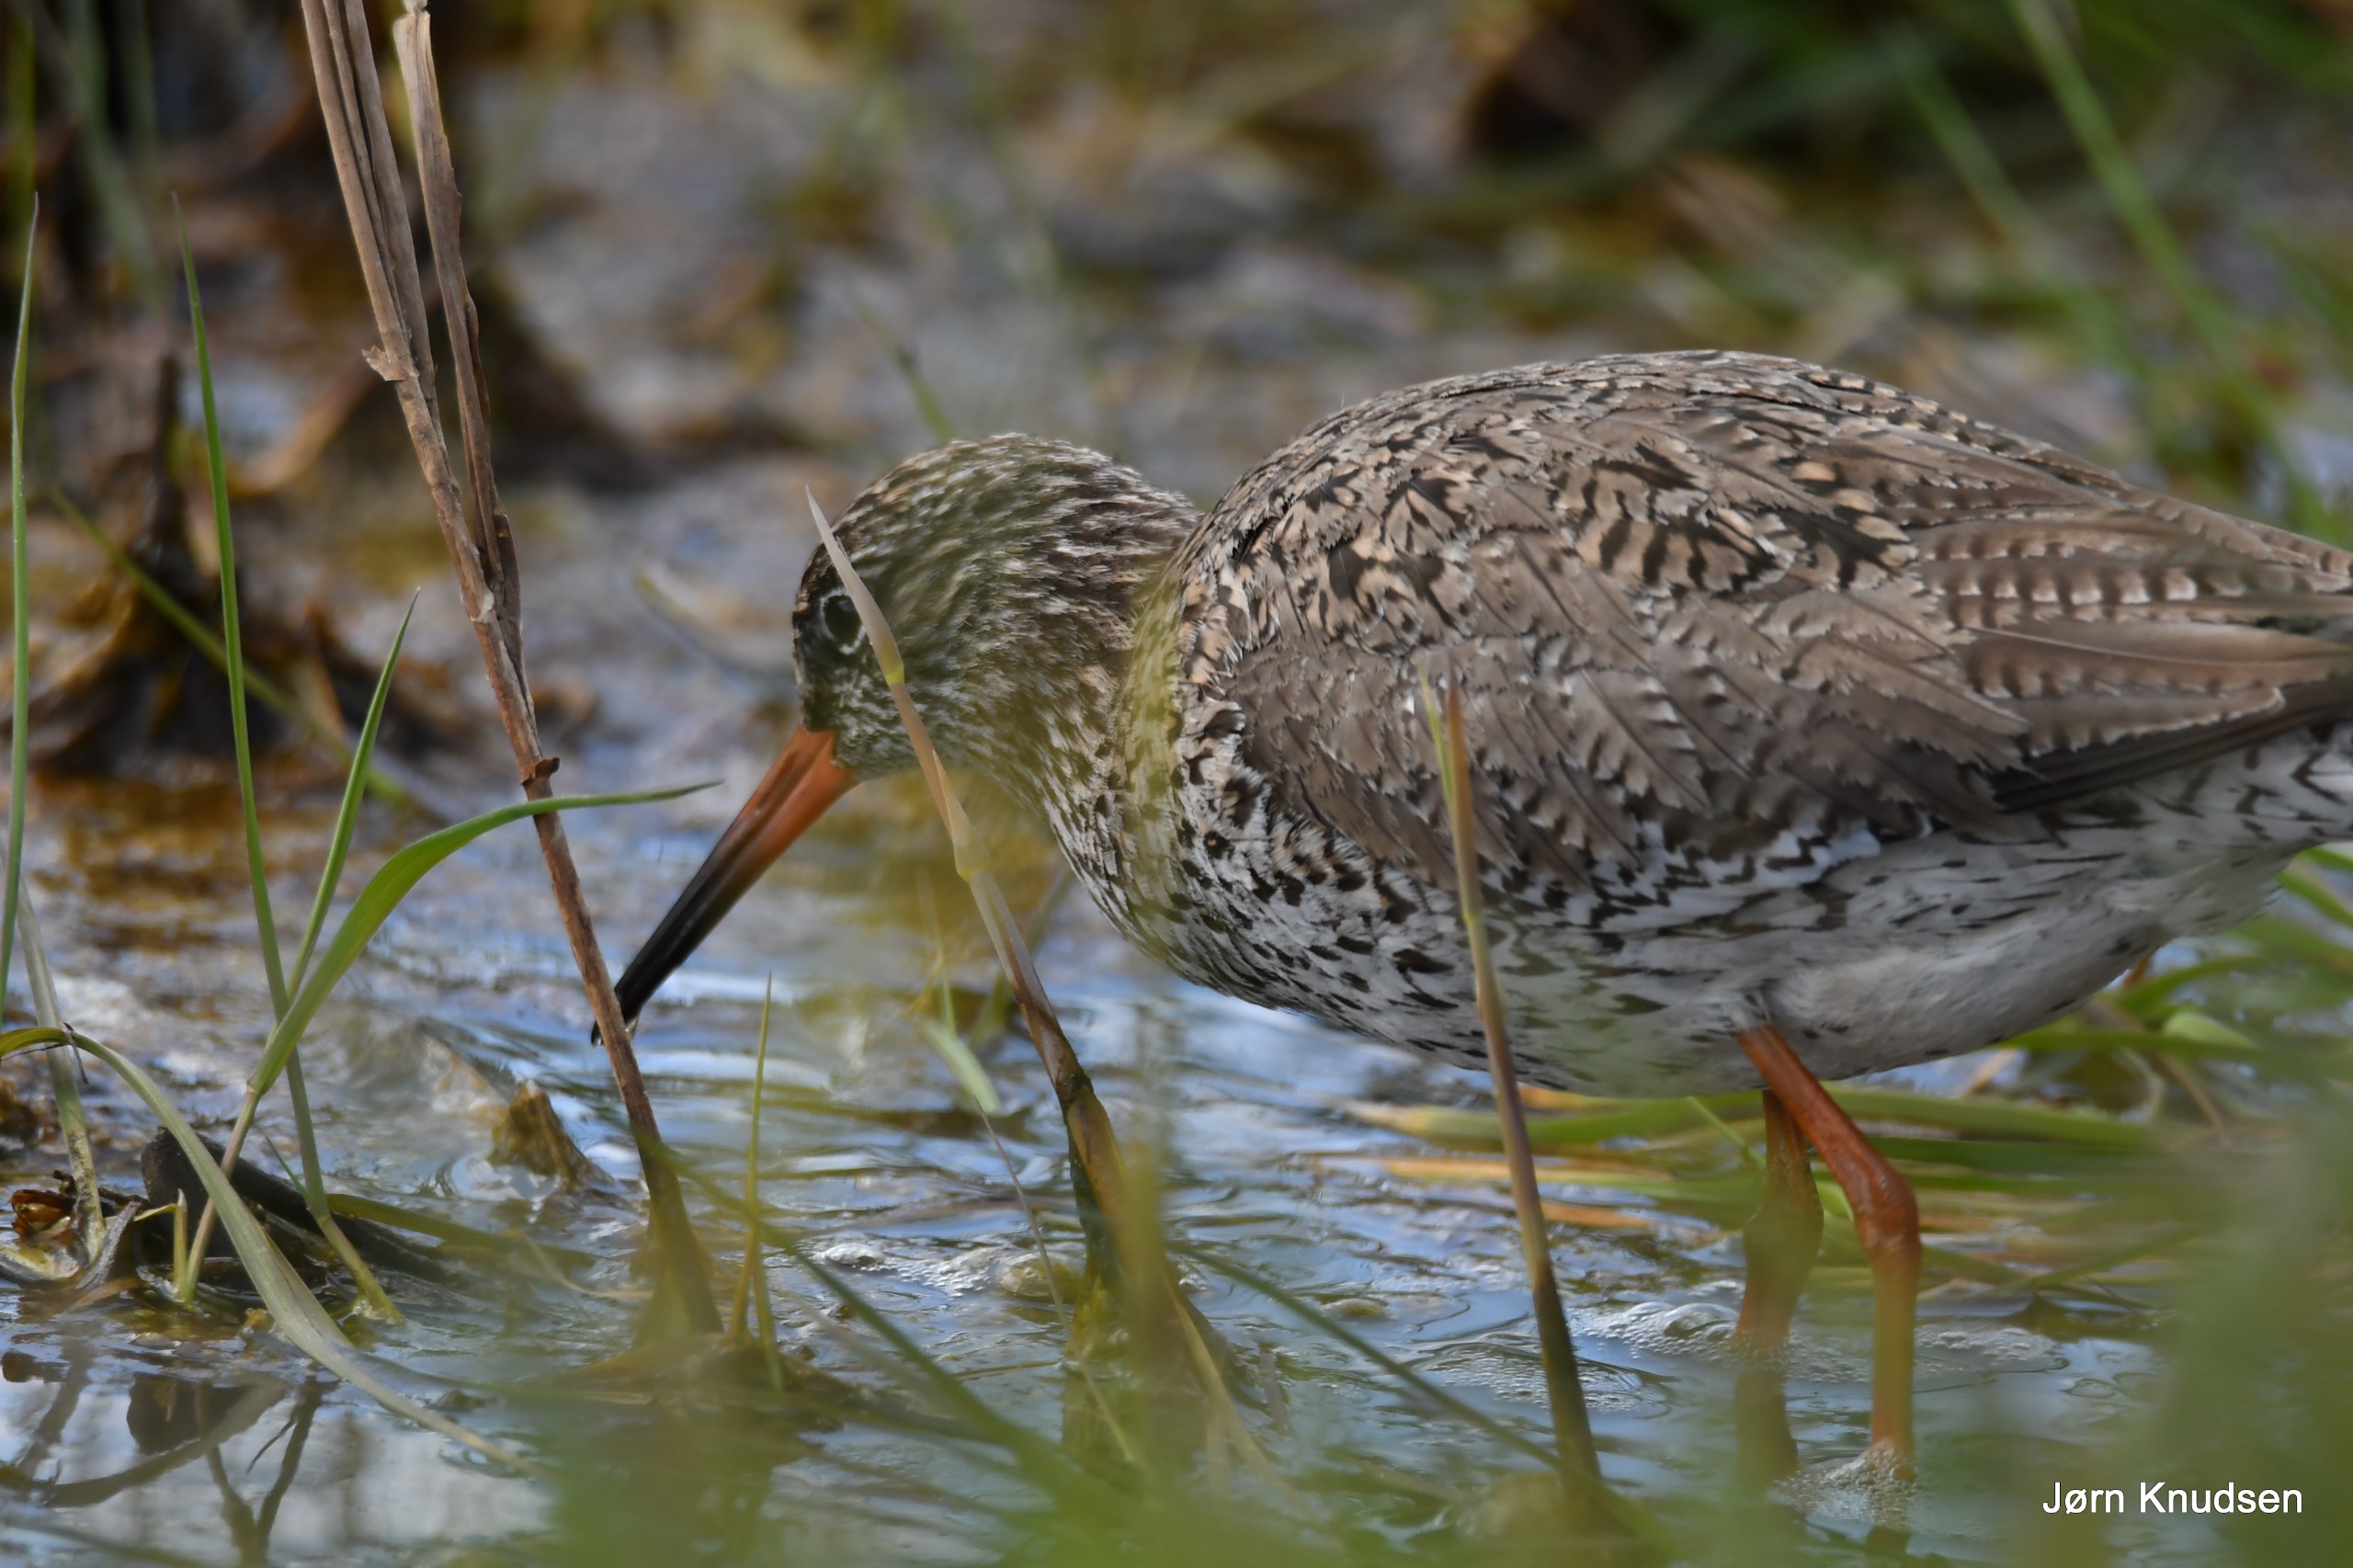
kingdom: Animalia
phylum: Chordata
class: Aves
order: Charadriiformes
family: Scolopacidae
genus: Tringa
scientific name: Tringa totanus
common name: Rødben
